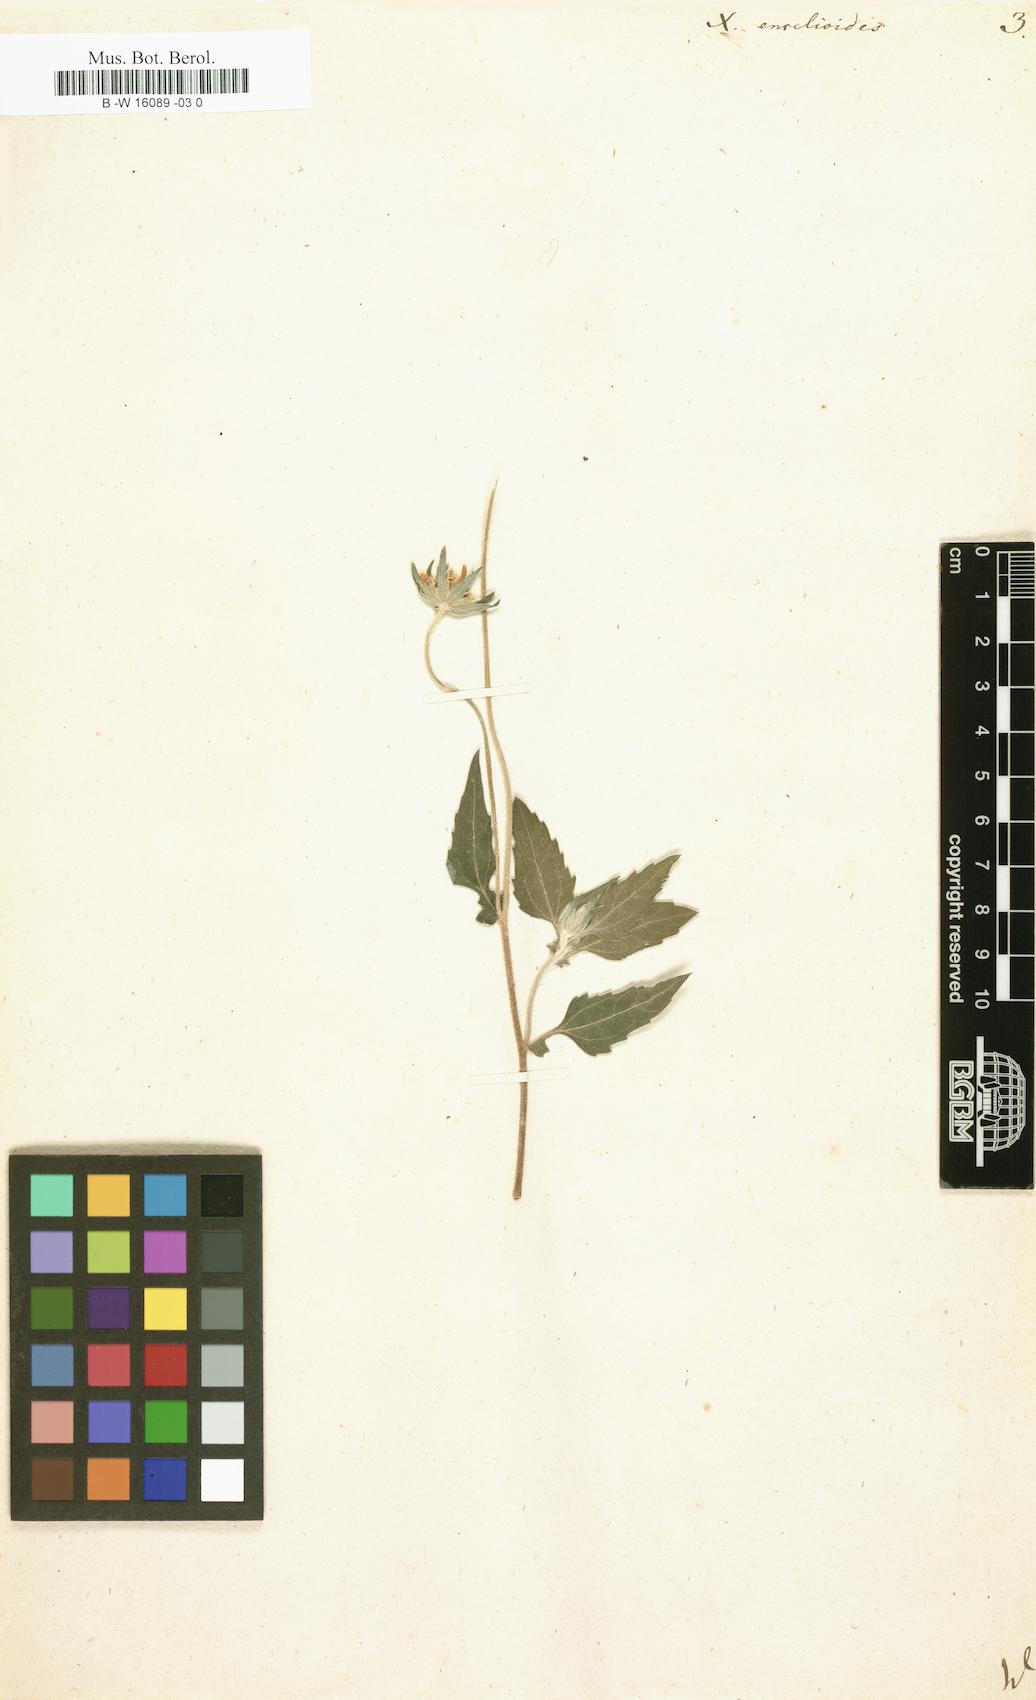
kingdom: Plantae
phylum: Tracheophyta
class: Magnoliopsida
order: Asterales
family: Asteraceae
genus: Verbesina
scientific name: Verbesina encelioides
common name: Golden crownbeard
